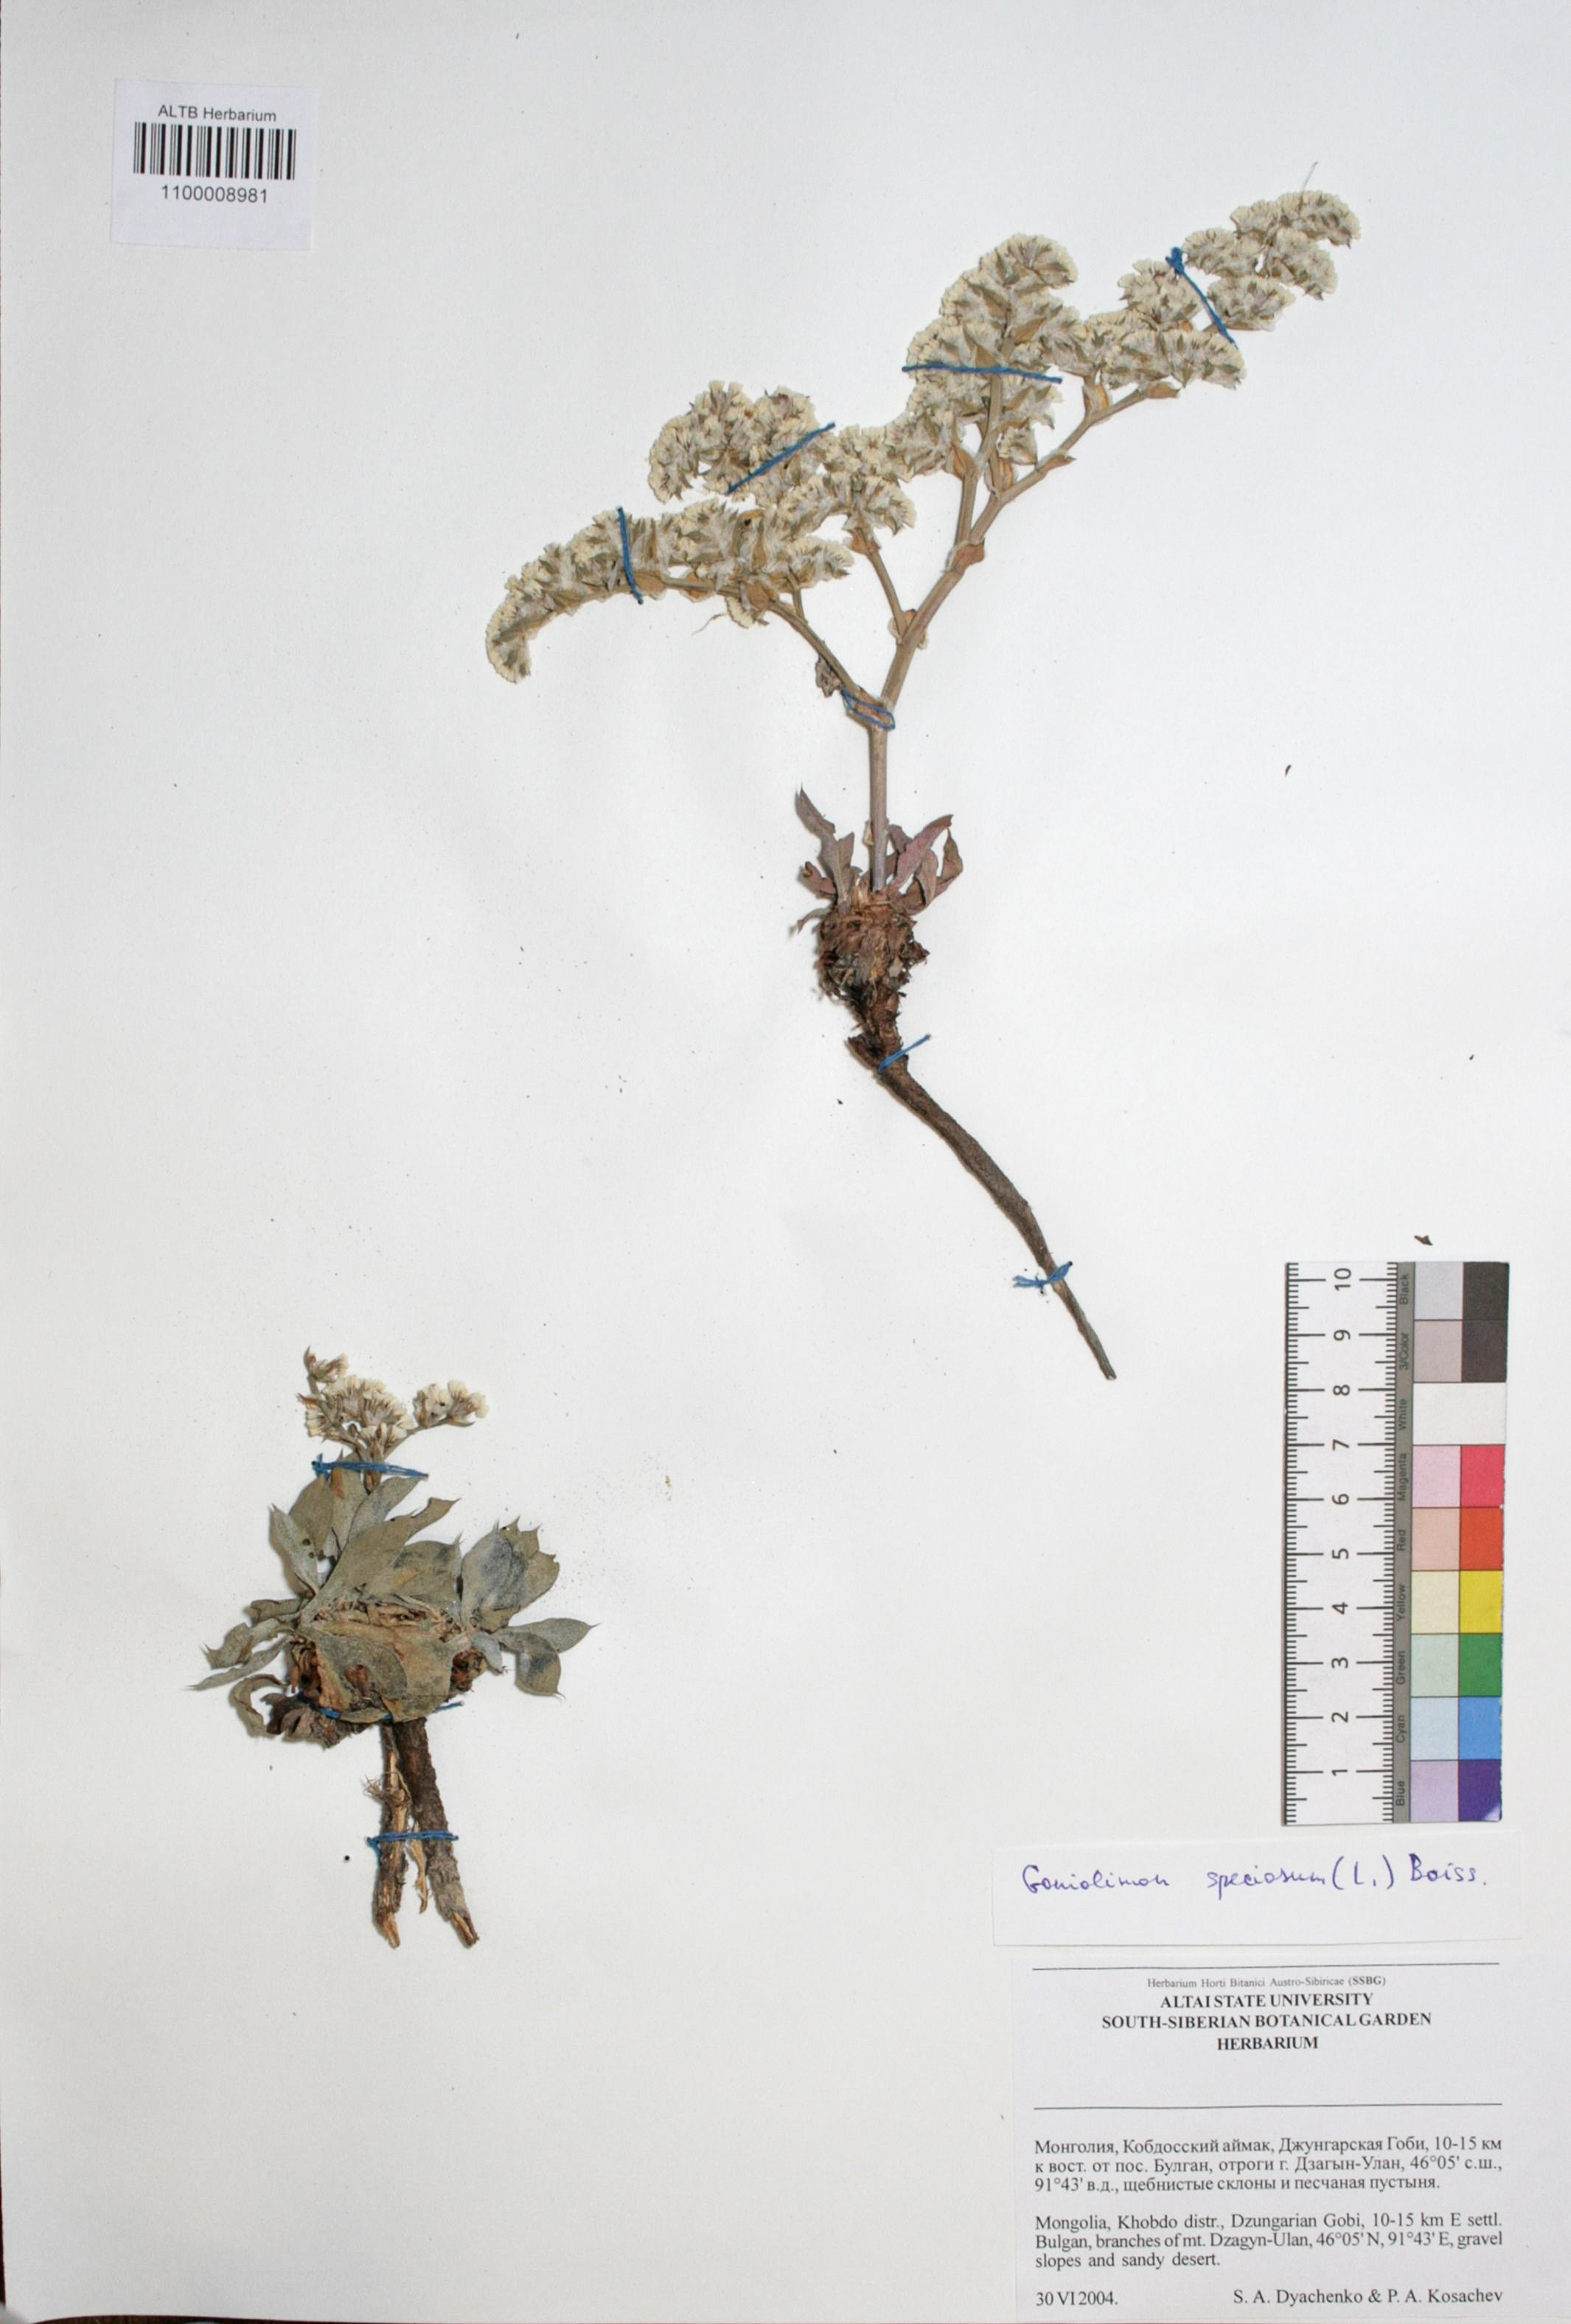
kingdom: Plantae
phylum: Tracheophyta
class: Magnoliopsida
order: Caryophyllales
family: Plumbaginaceae
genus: Goniolimon
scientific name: Goniolimon speciosum
